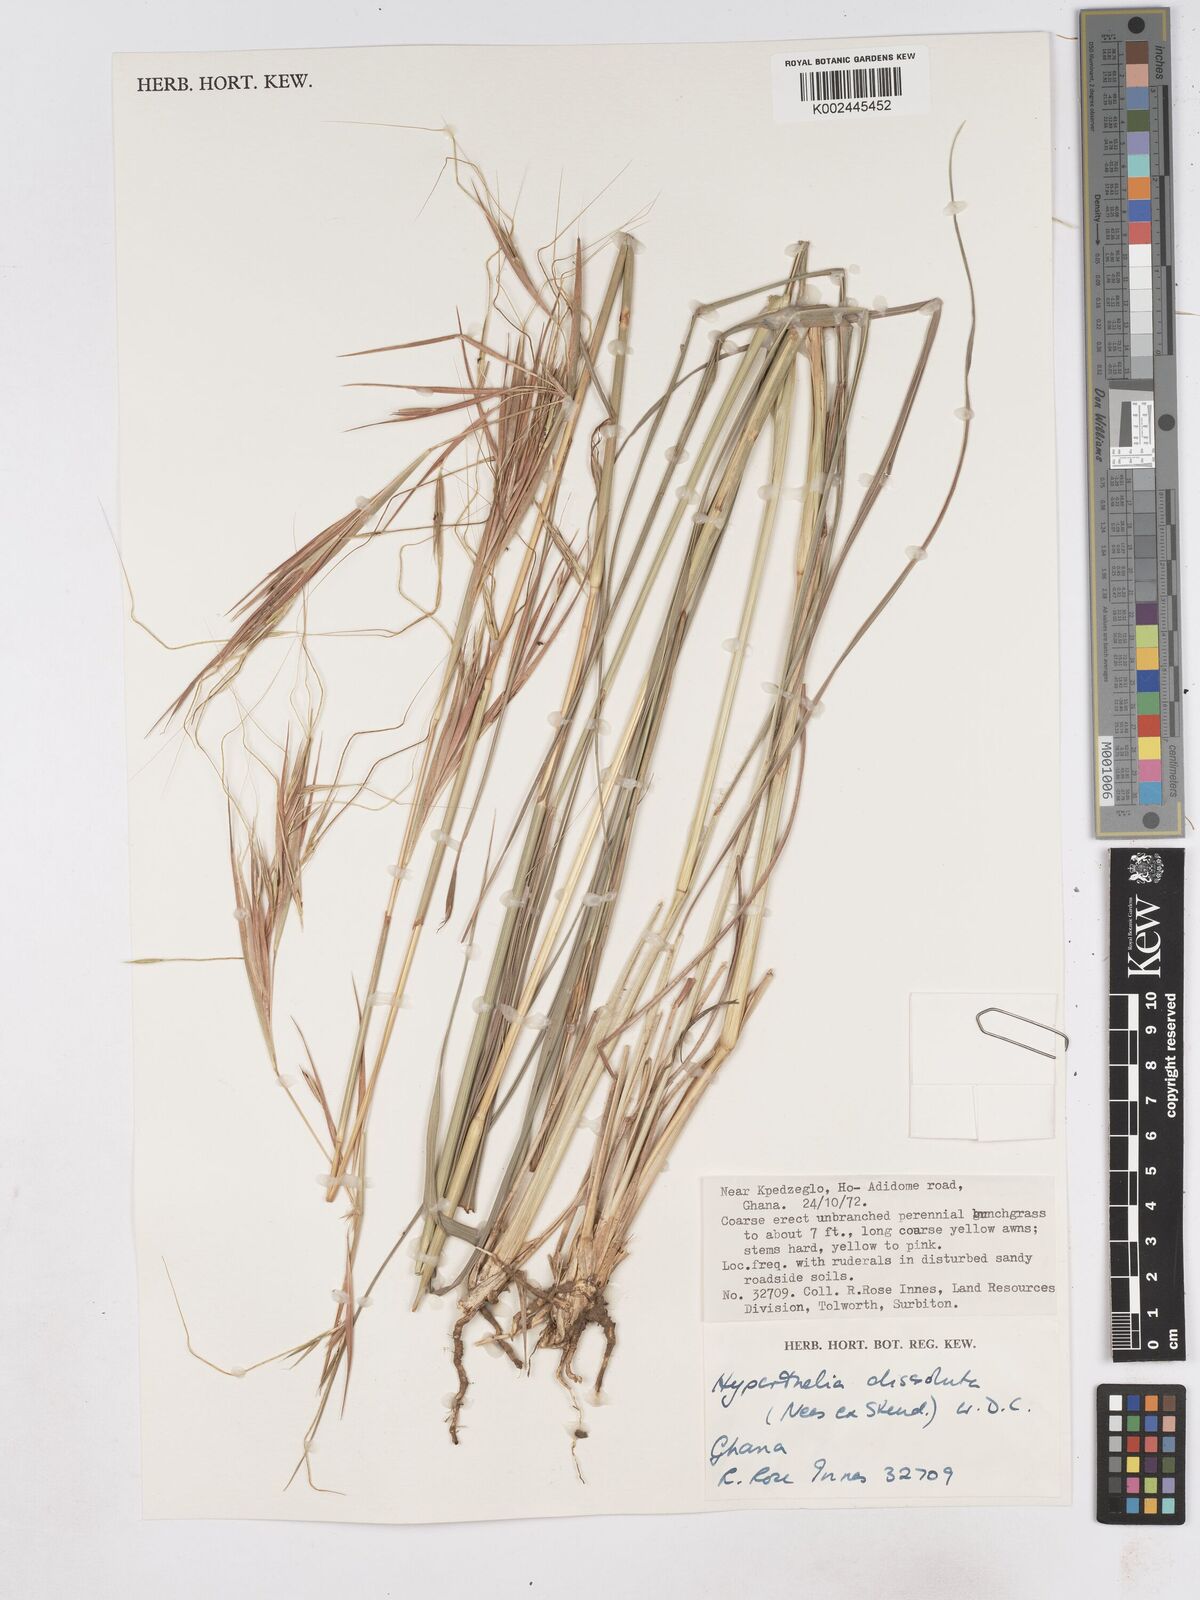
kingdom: Plantae
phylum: Tracheophyta
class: Liliopsida
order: Poales
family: Poaceae
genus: Hyperthelia
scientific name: Hyperthelia dissoluta
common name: Yellow thatching grass
